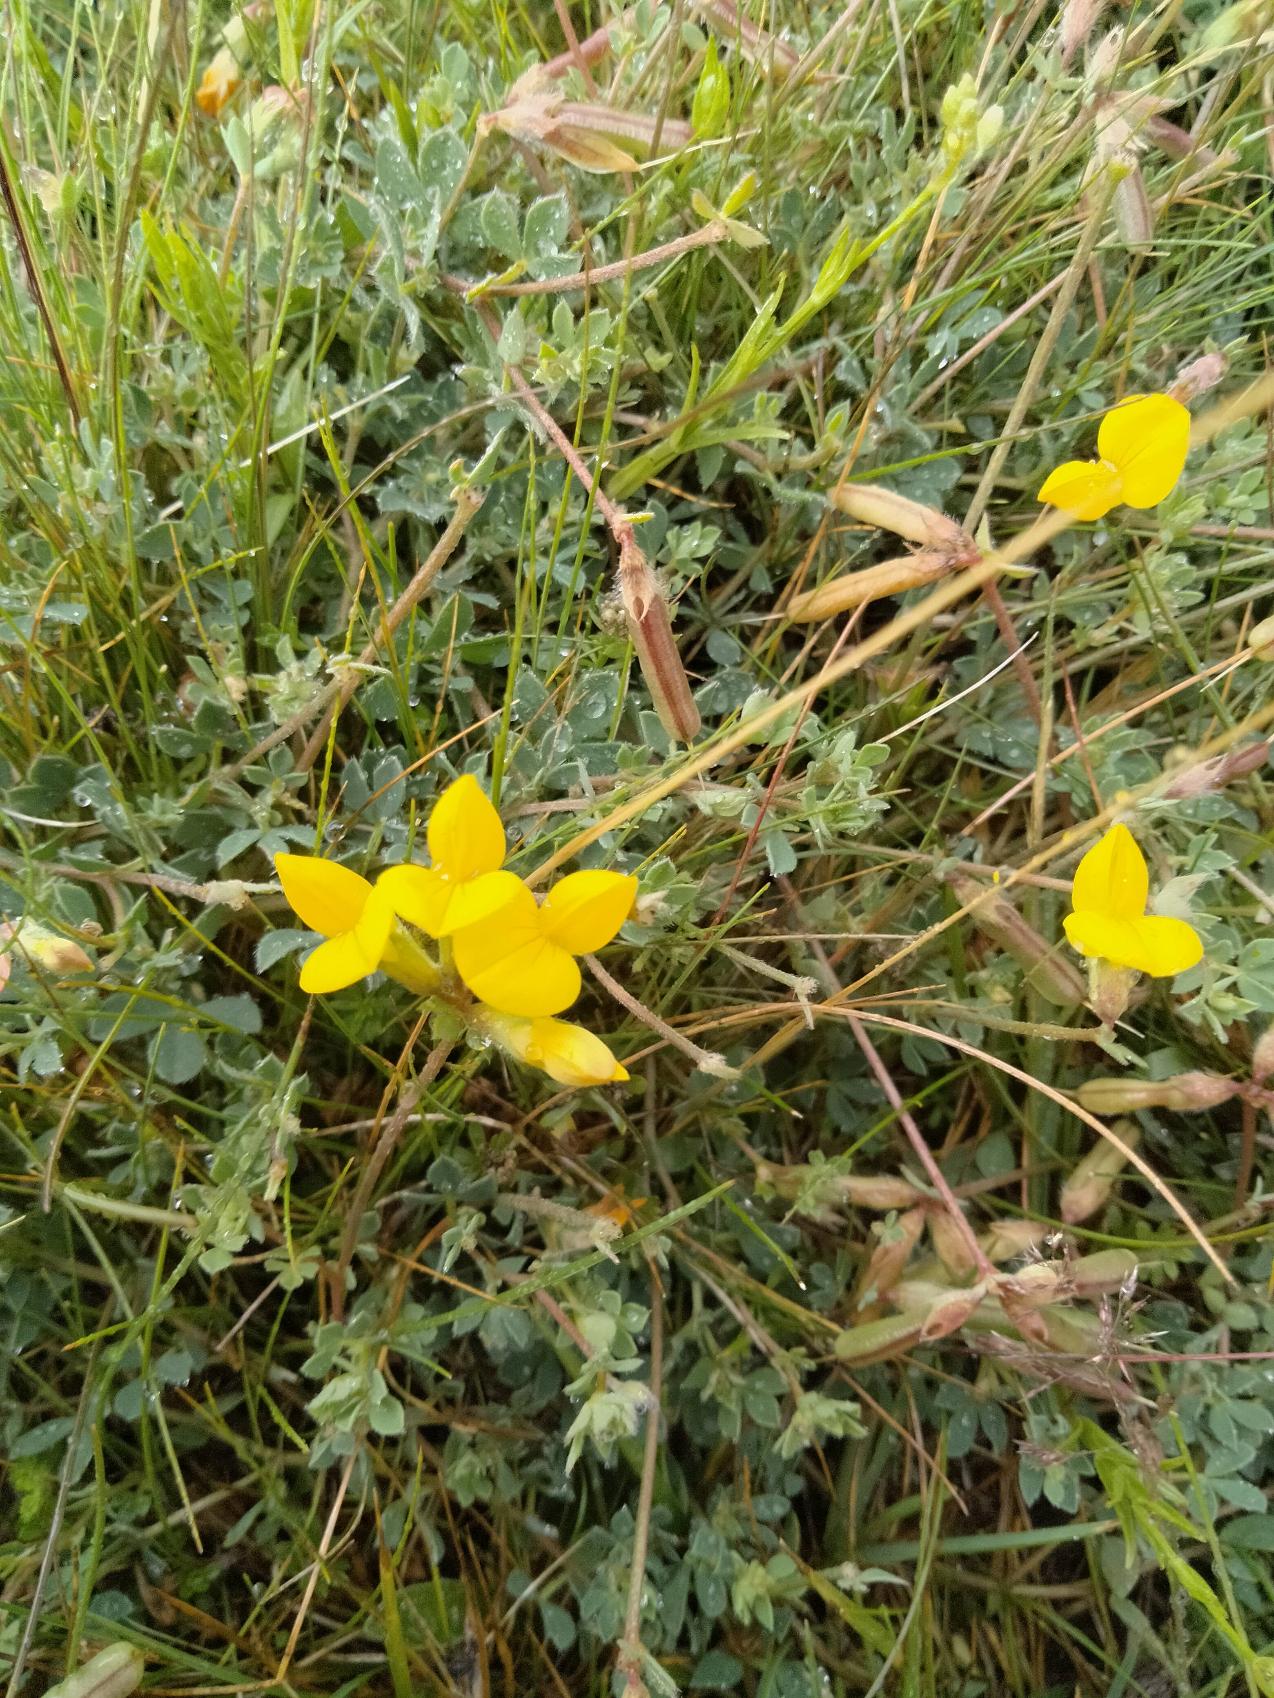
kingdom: Plantae
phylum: Tracheophyta
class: Magnoliopsida
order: Fabales
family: Fabaceae
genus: Lotus
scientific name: Lotus corniculatus
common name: Almindelig kællingetand
